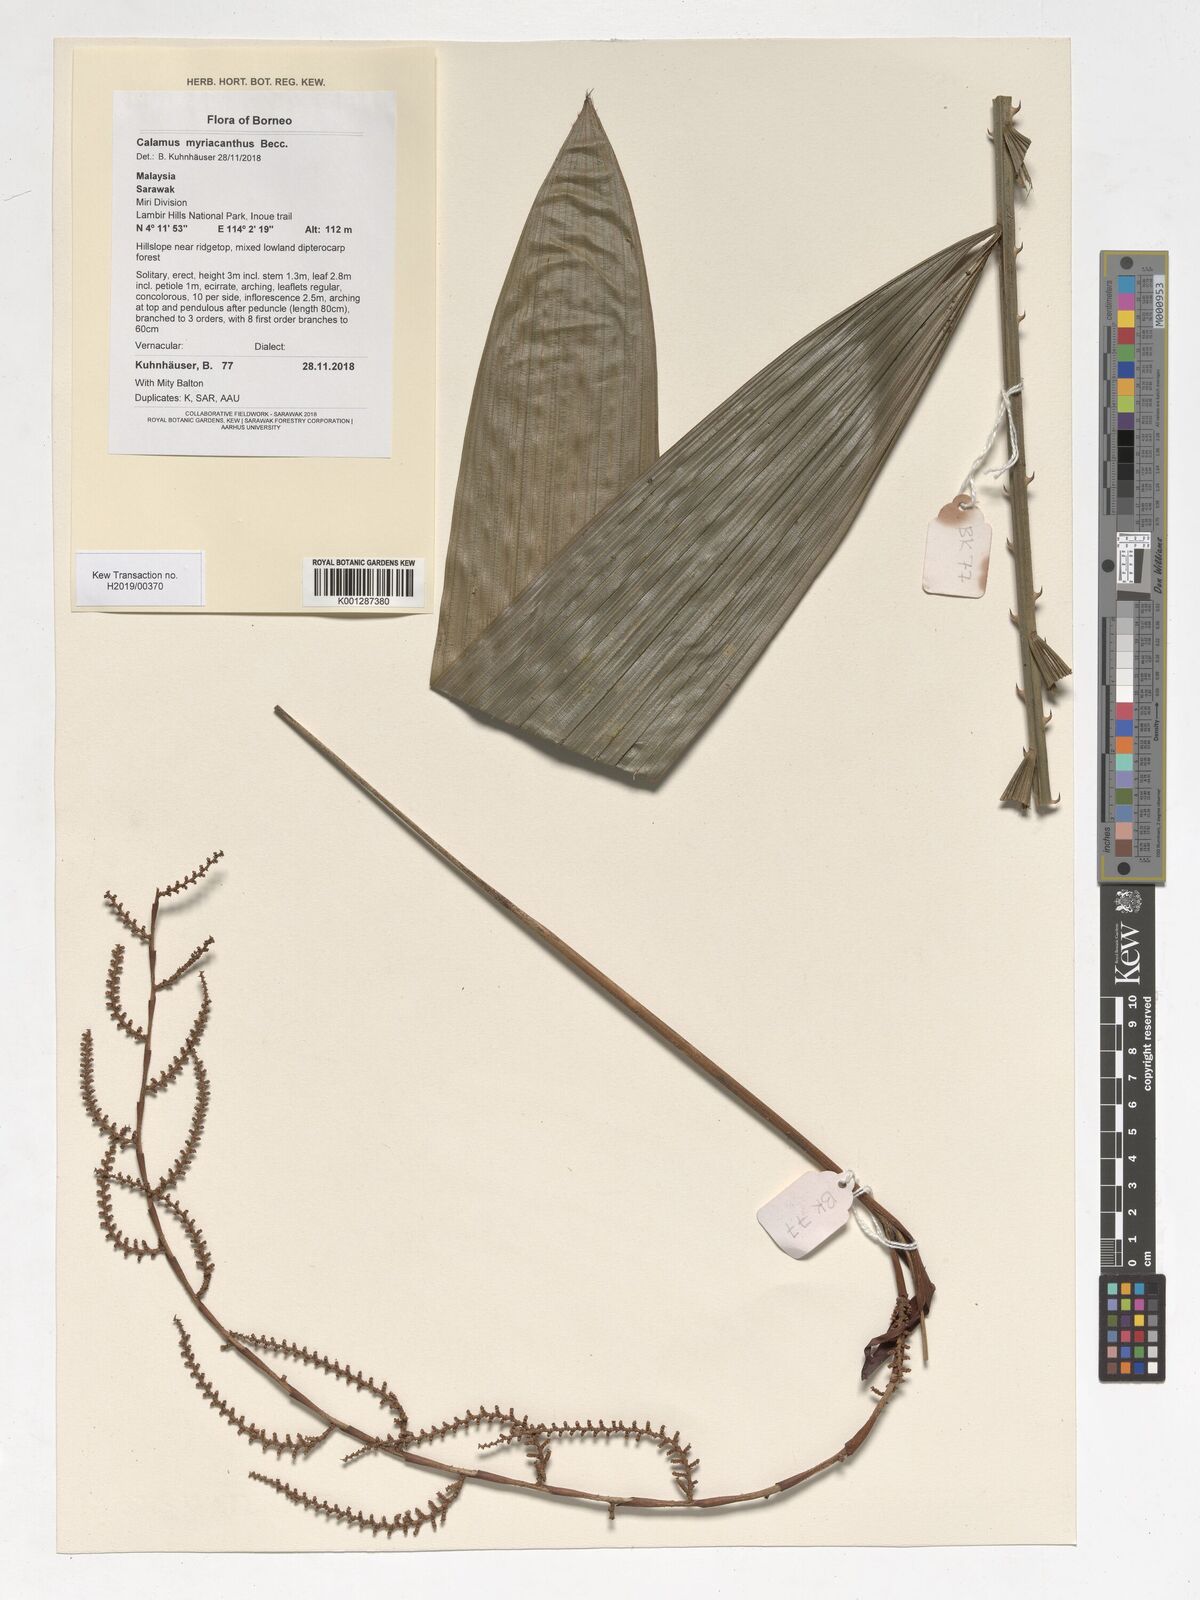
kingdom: Plantae
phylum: Tracheophyta
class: Liliopsida
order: Arecales
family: Arecaceae
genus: Calamus
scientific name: Calamus myriacanthus
